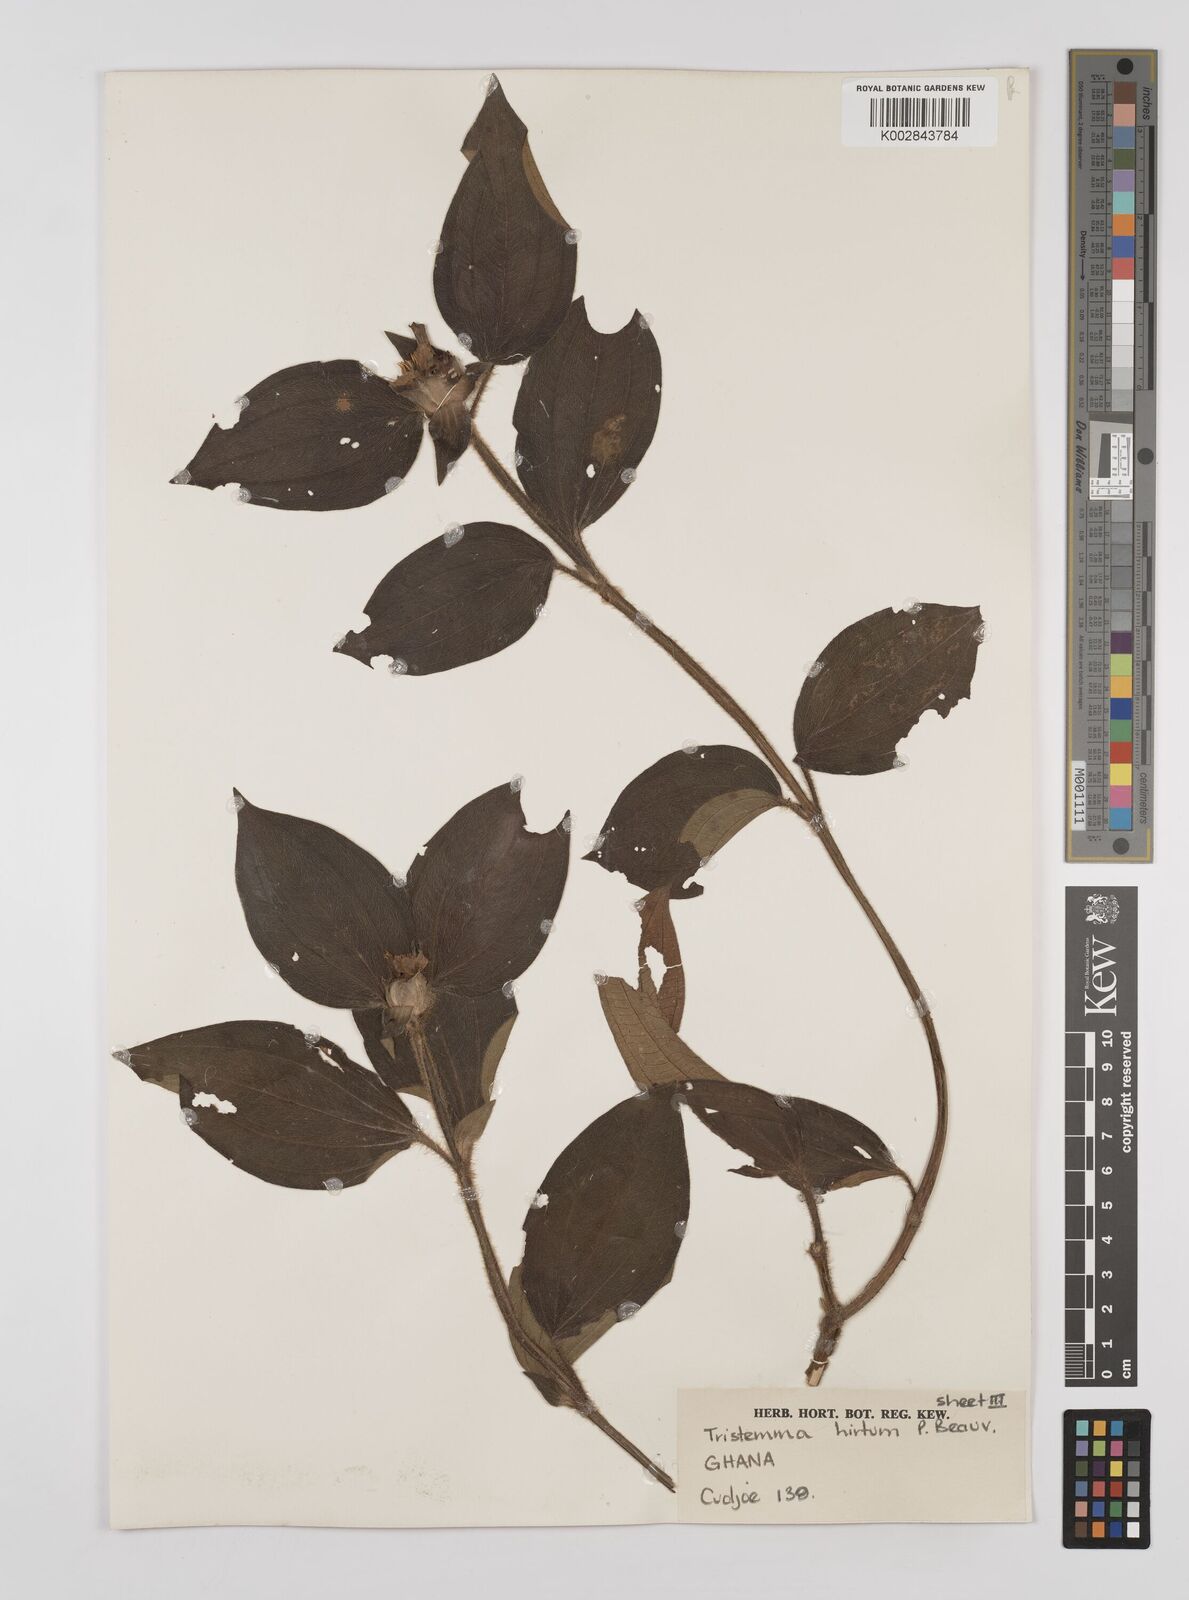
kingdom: Plantae
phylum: Tracheophyta
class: Magnoliopsida
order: Myrtales
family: Melastomataceae
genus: Tristemma
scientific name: Tristemma
